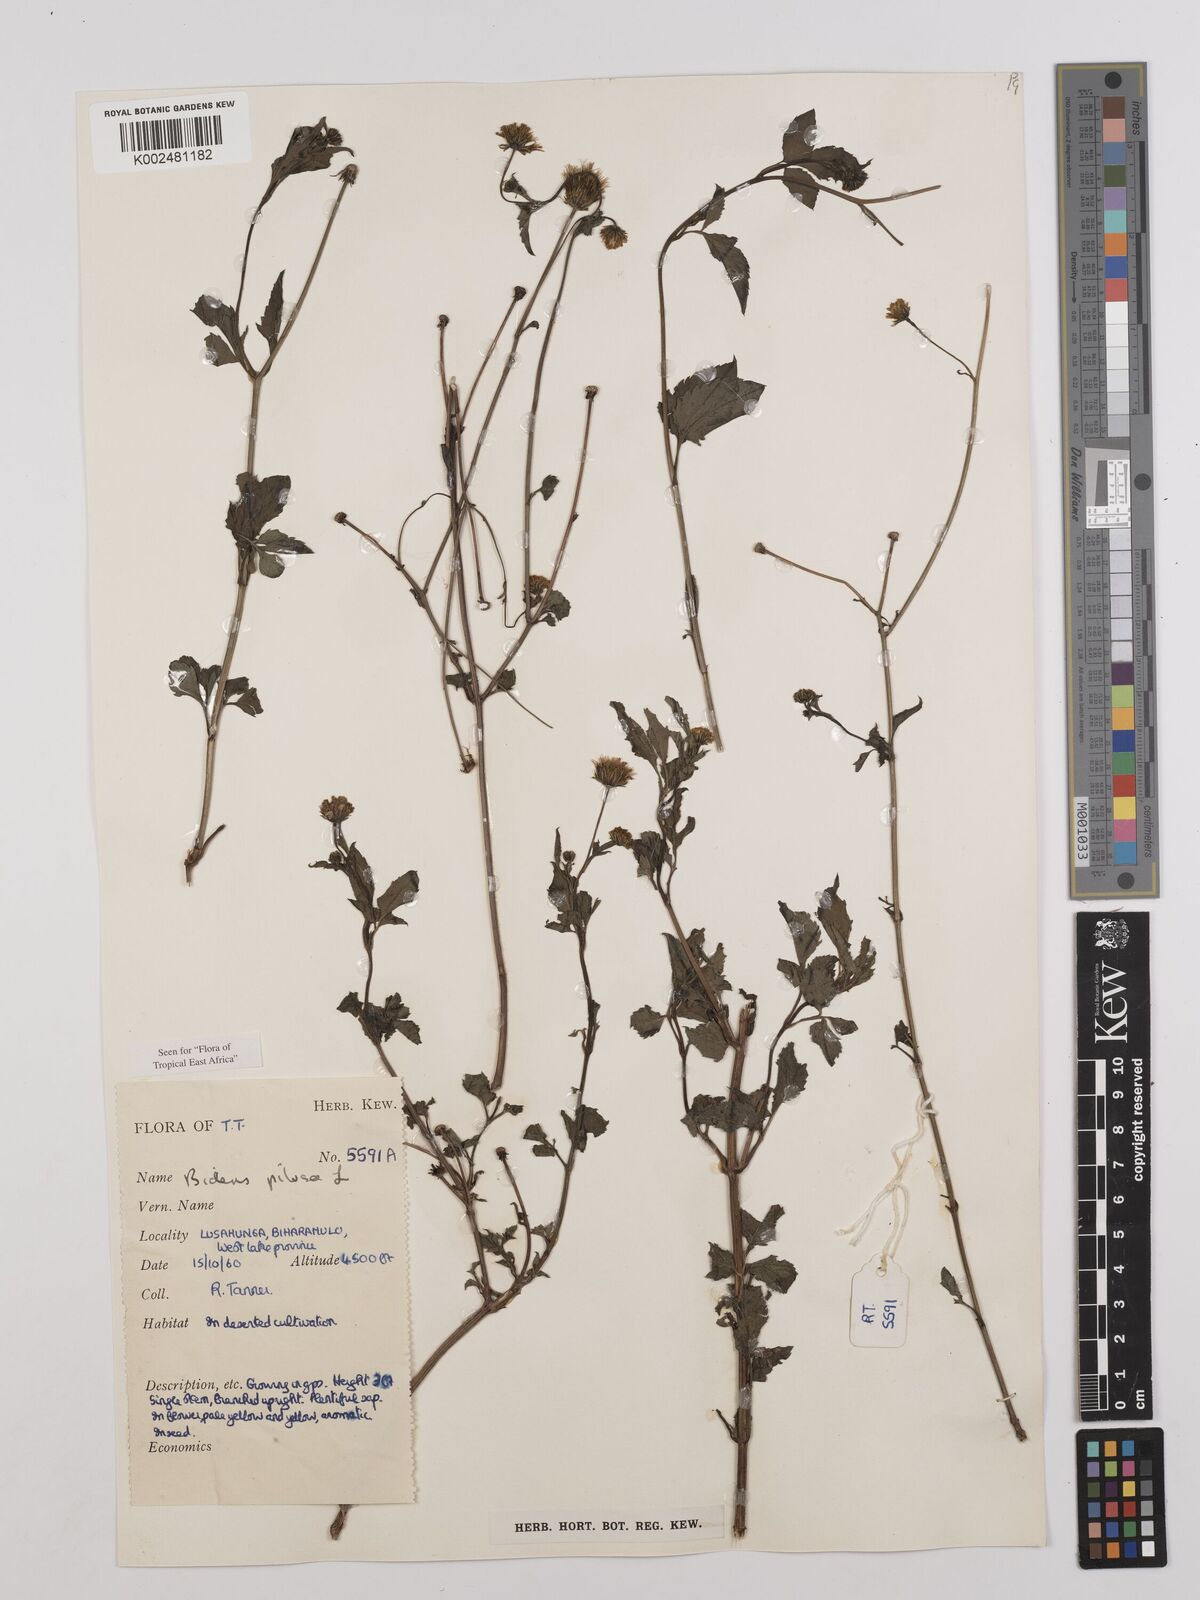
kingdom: Plantae
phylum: Tracheophyta
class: Magnoliopsida
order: Asterales
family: Asteraceae
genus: Bidens
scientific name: Bidens pilosa
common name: Black-jack
